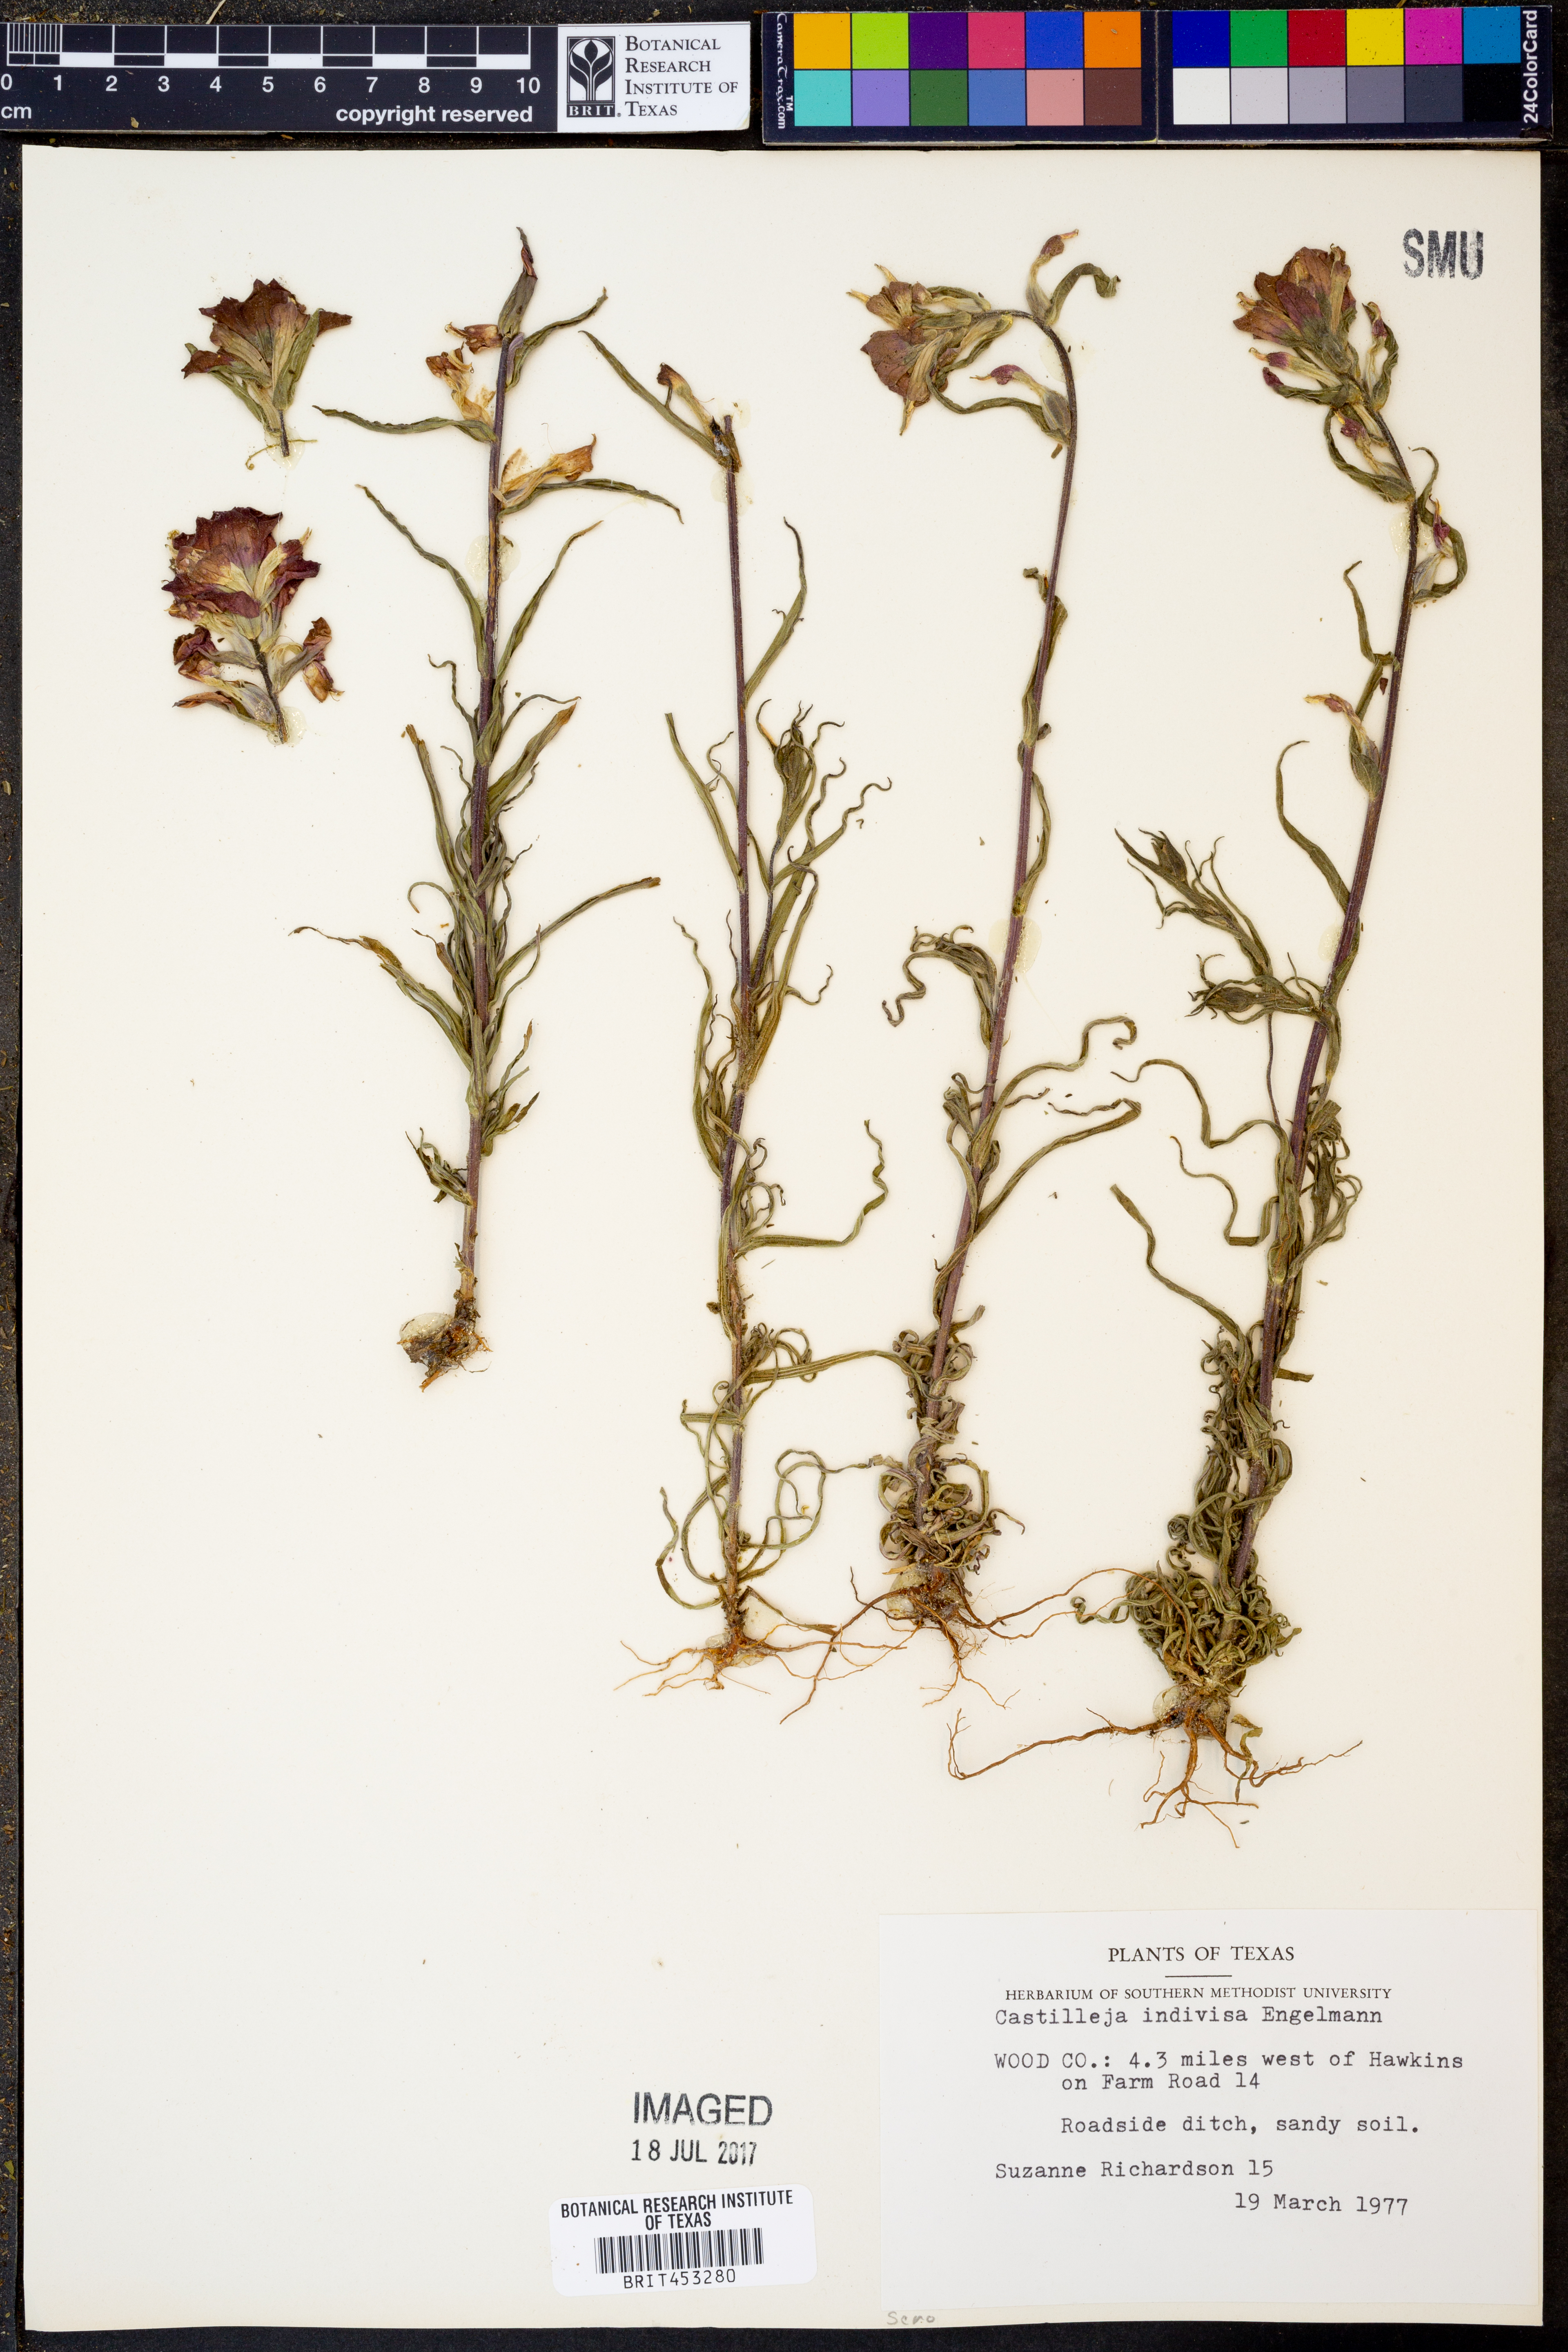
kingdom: Plantae
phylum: Tracheophyta
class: Magnoliopsida
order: Lamiales
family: Orobanchaceae
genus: Castilleja
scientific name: Castilleja indivisa
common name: Texas paintbrush
